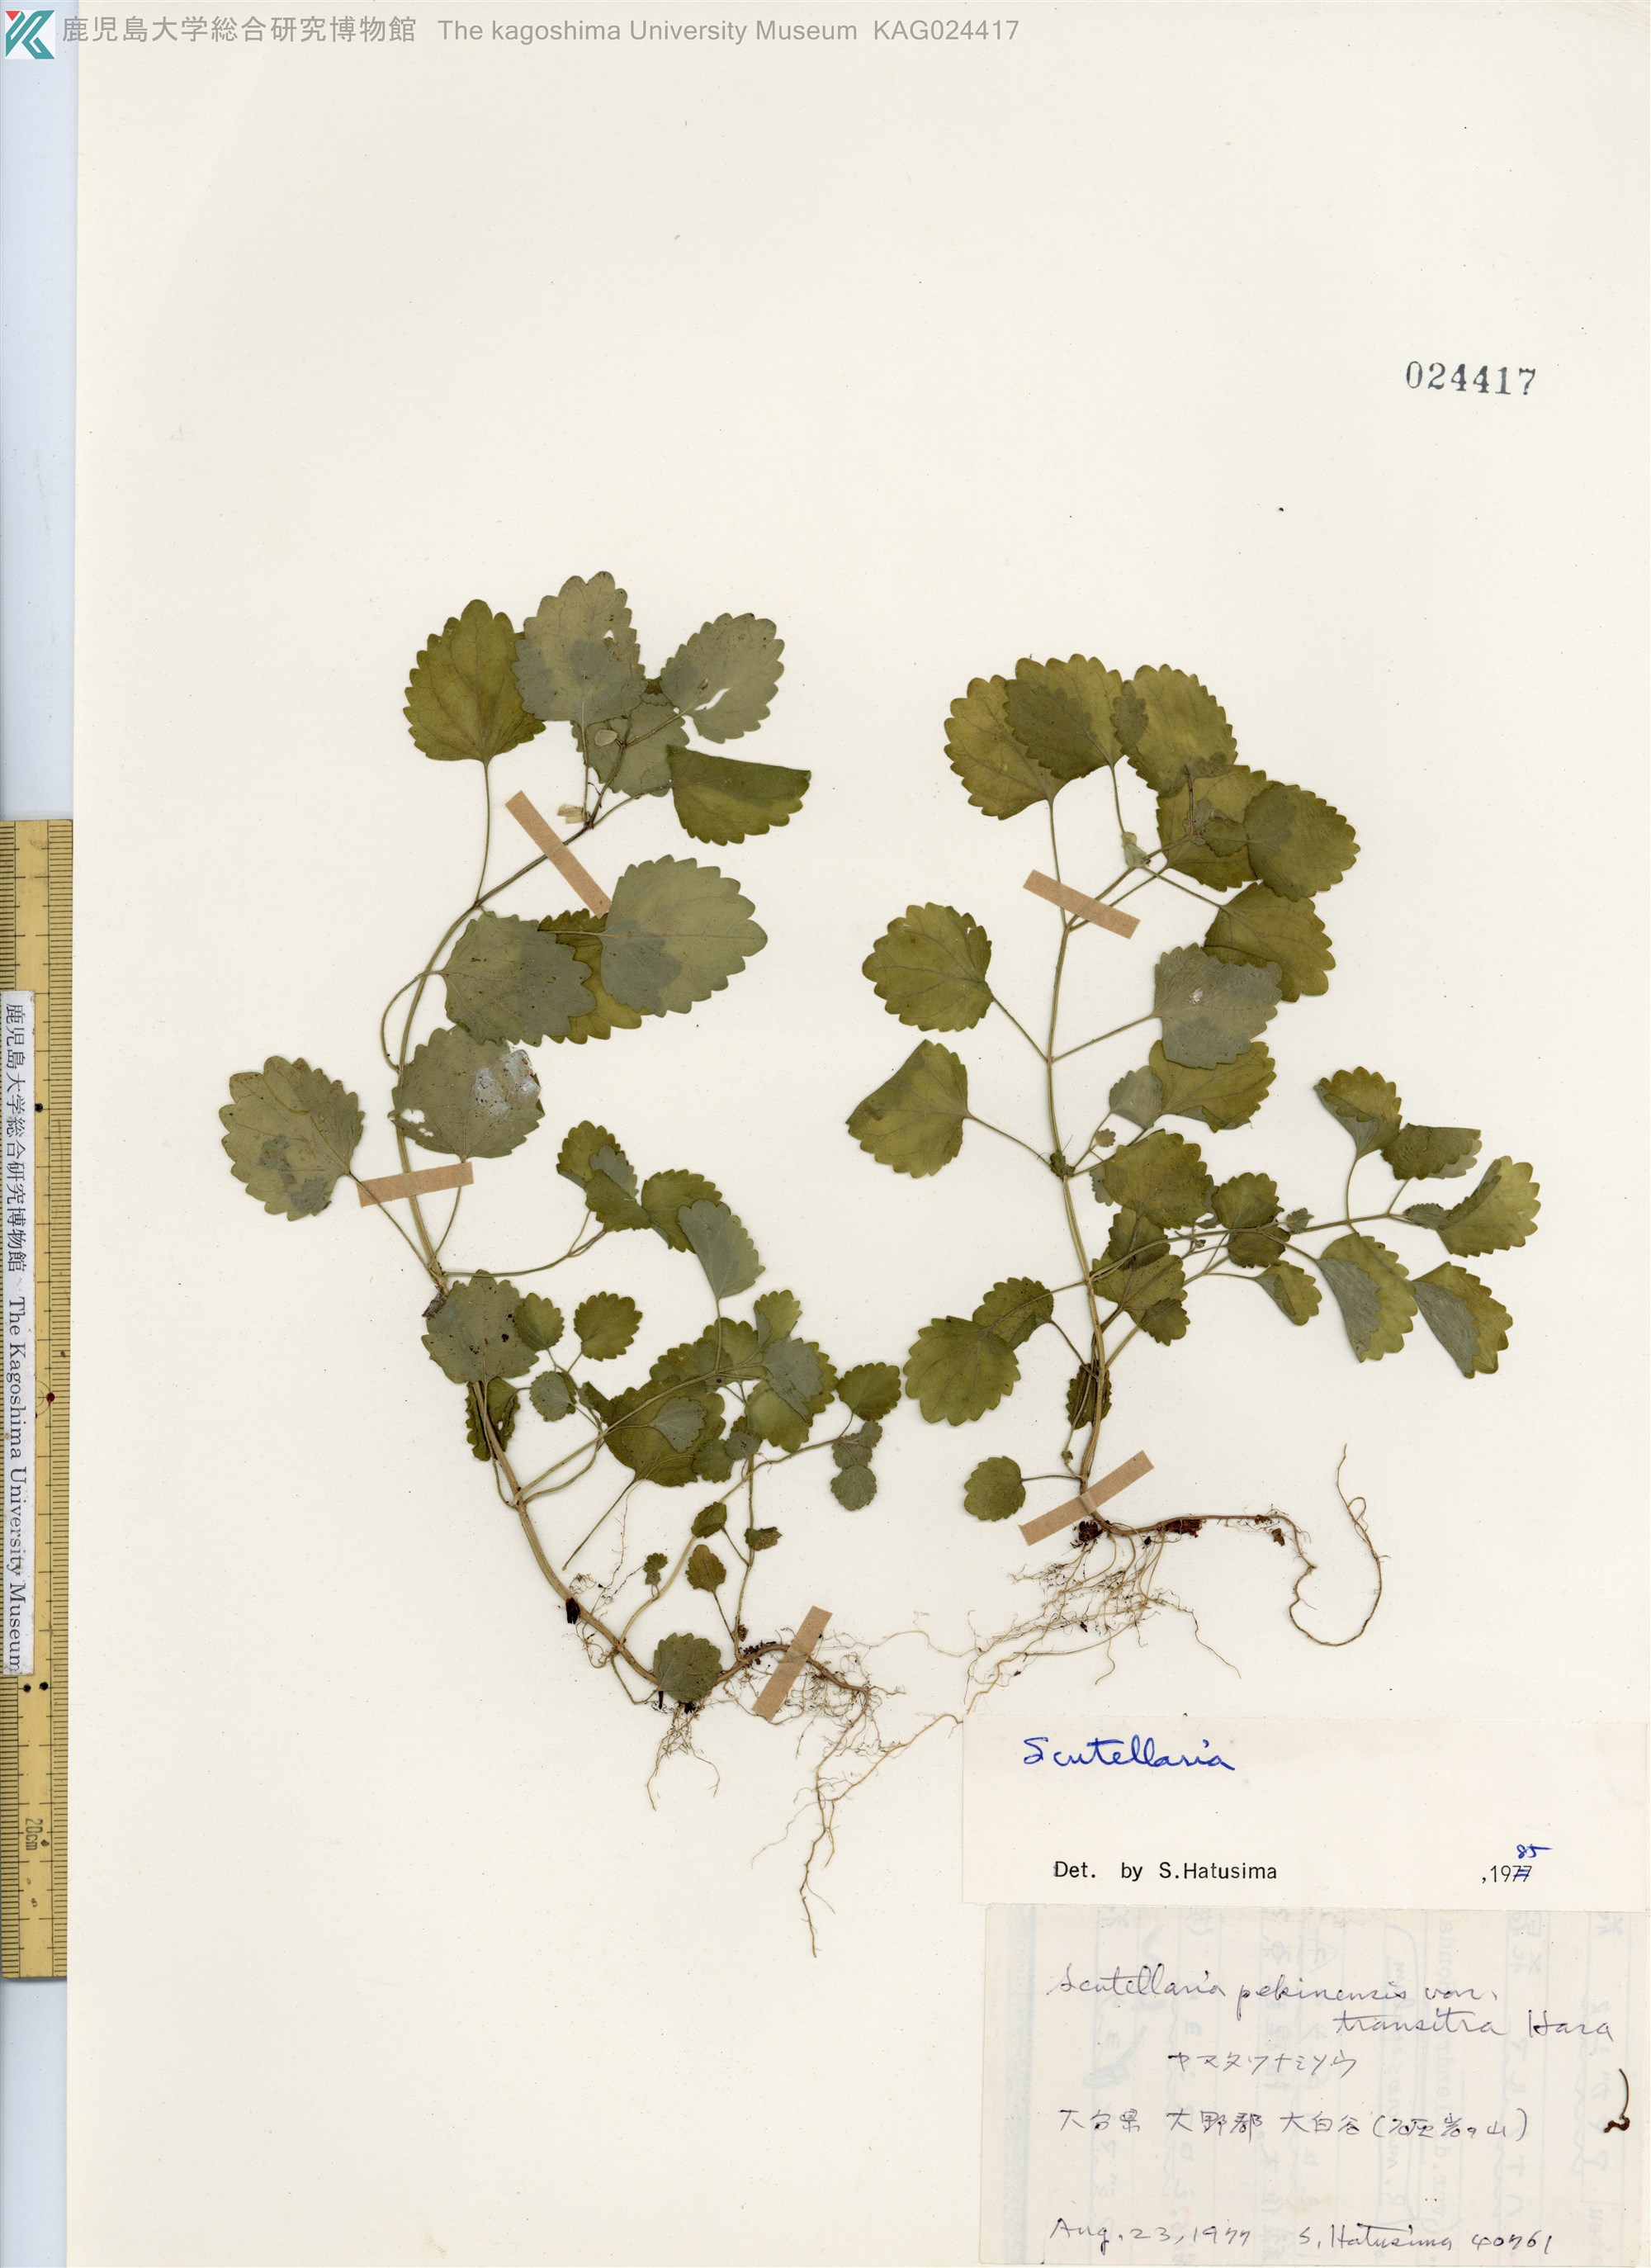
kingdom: Plantae
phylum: Tracheophyta
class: Magnoliopsida
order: Lamiales
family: Lamiaceae
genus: Scutellaria
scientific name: Scutellaria pekinensis
